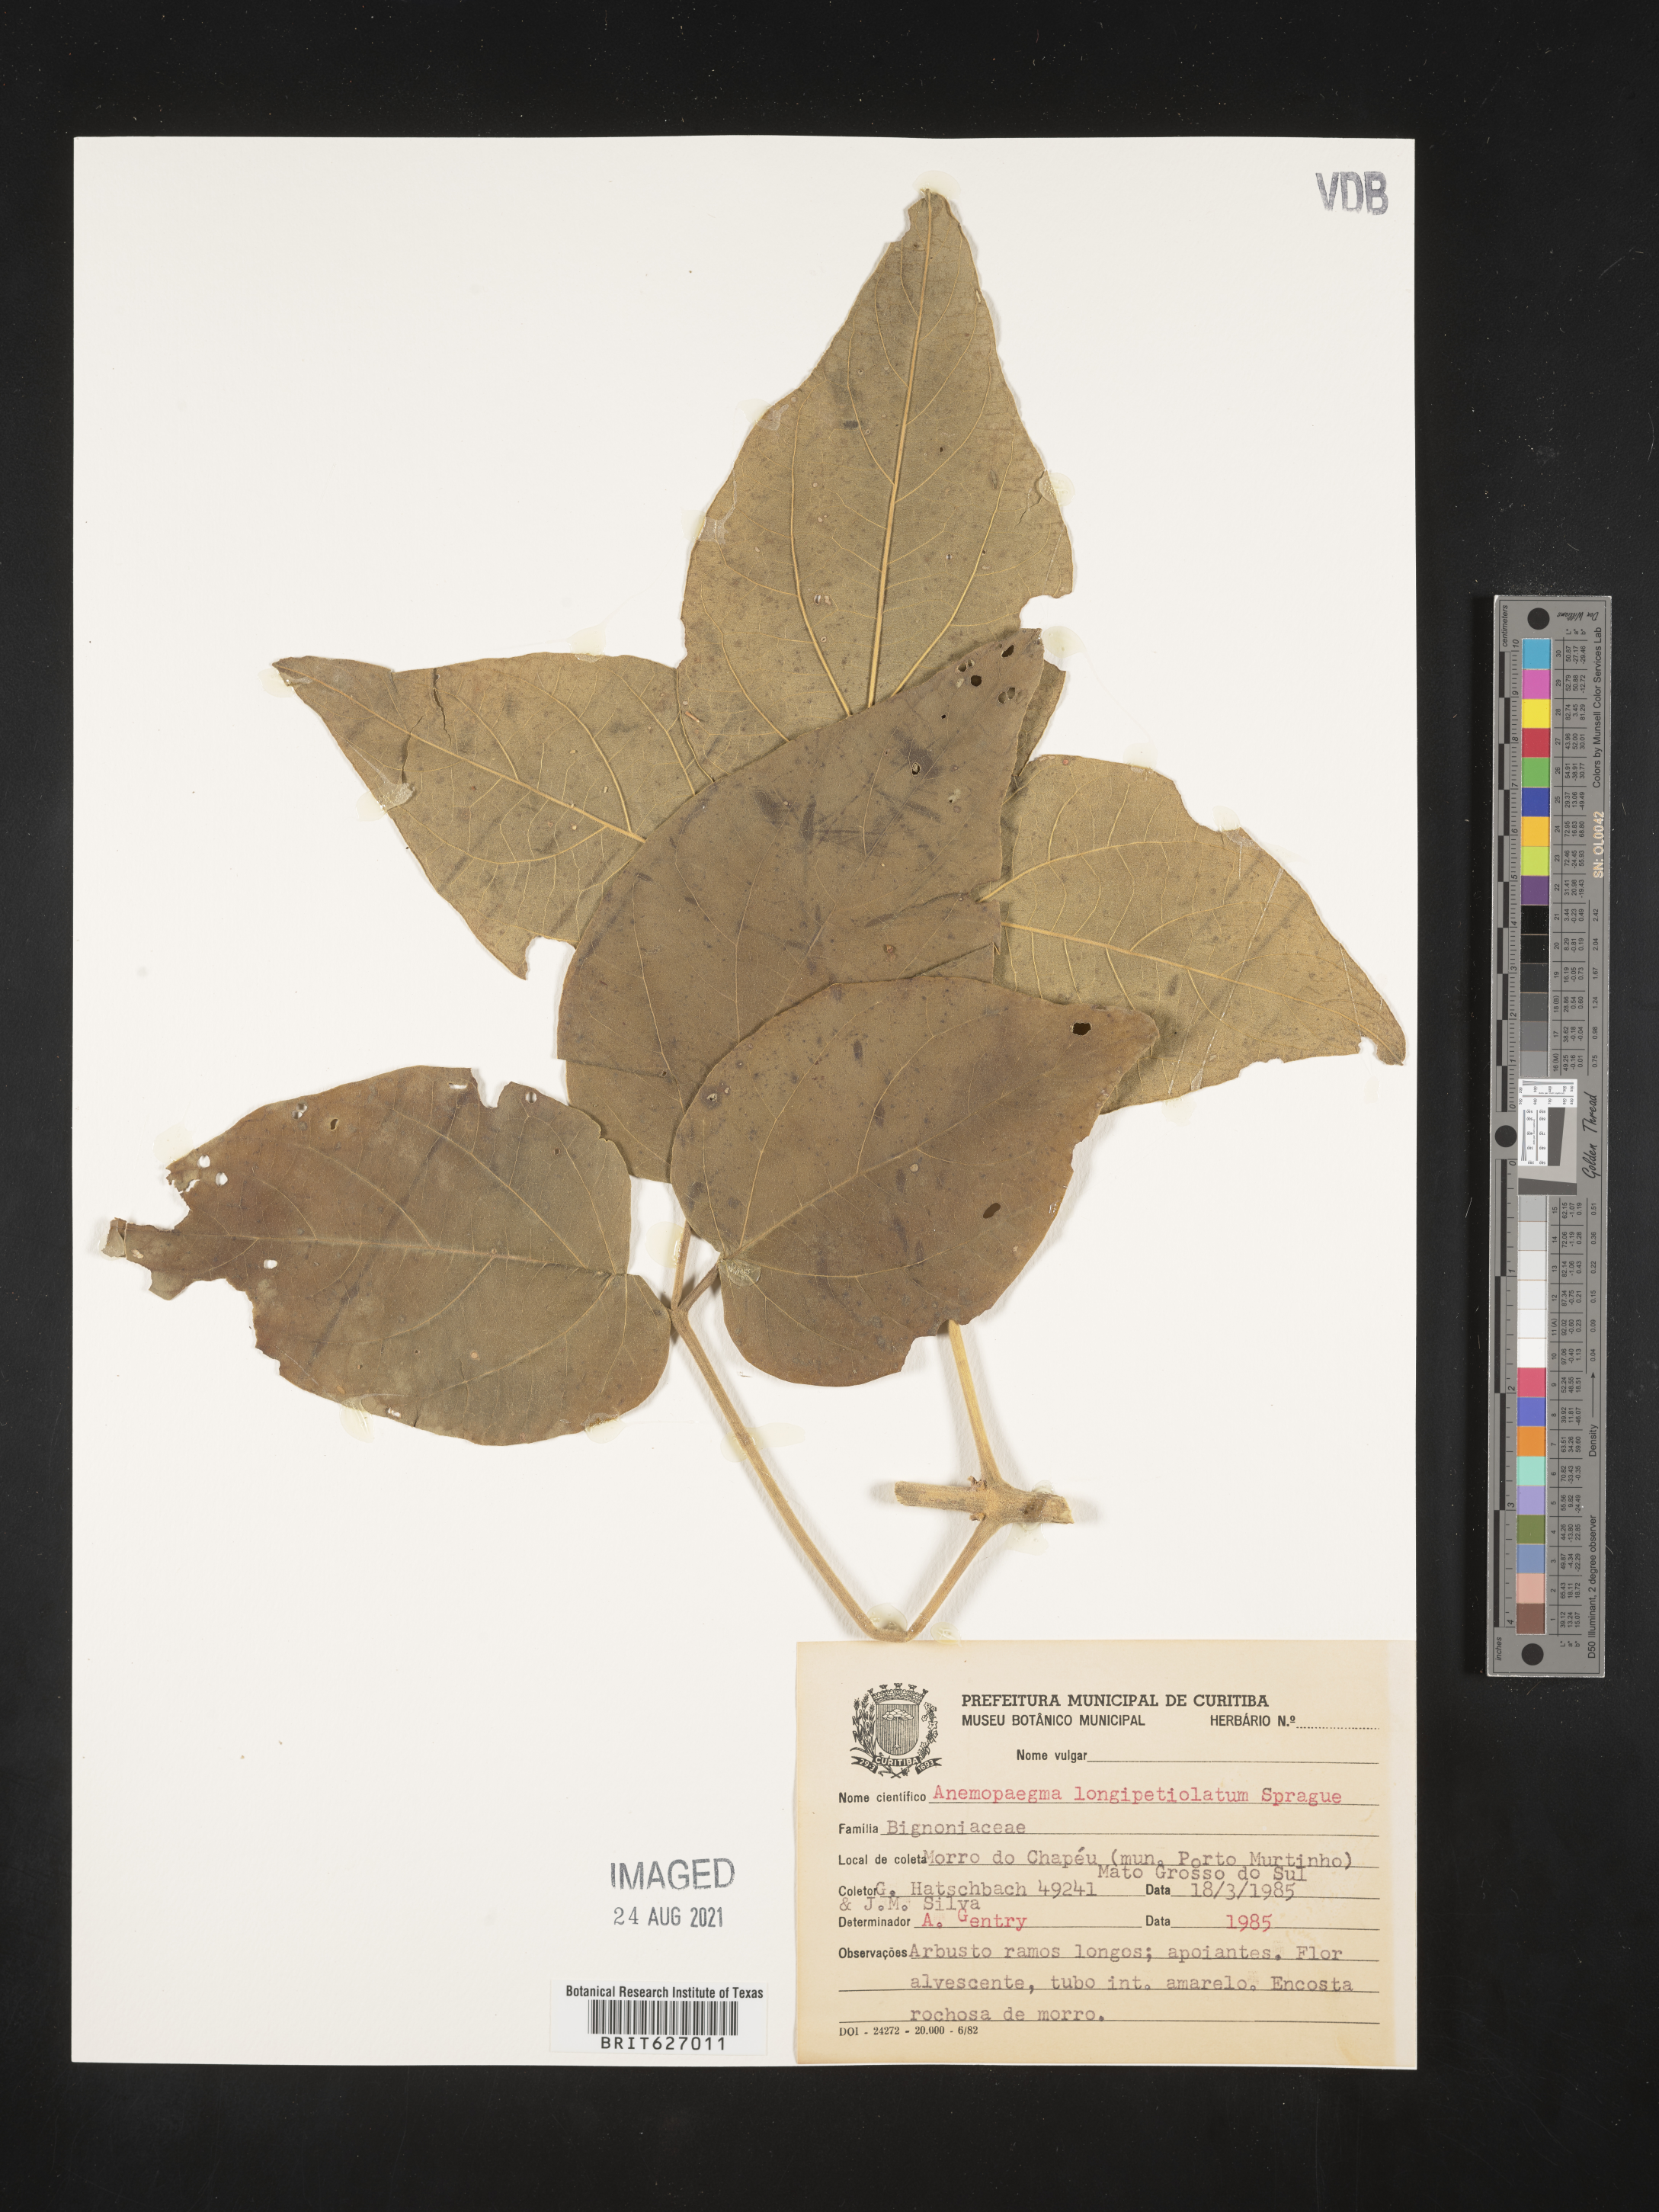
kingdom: Plantae
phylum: Tracheophyta
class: Magnoliopsida
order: Lamiales
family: Bignoniaceae
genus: Anemopaegma
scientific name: Anemopaegma longipetiolatum
